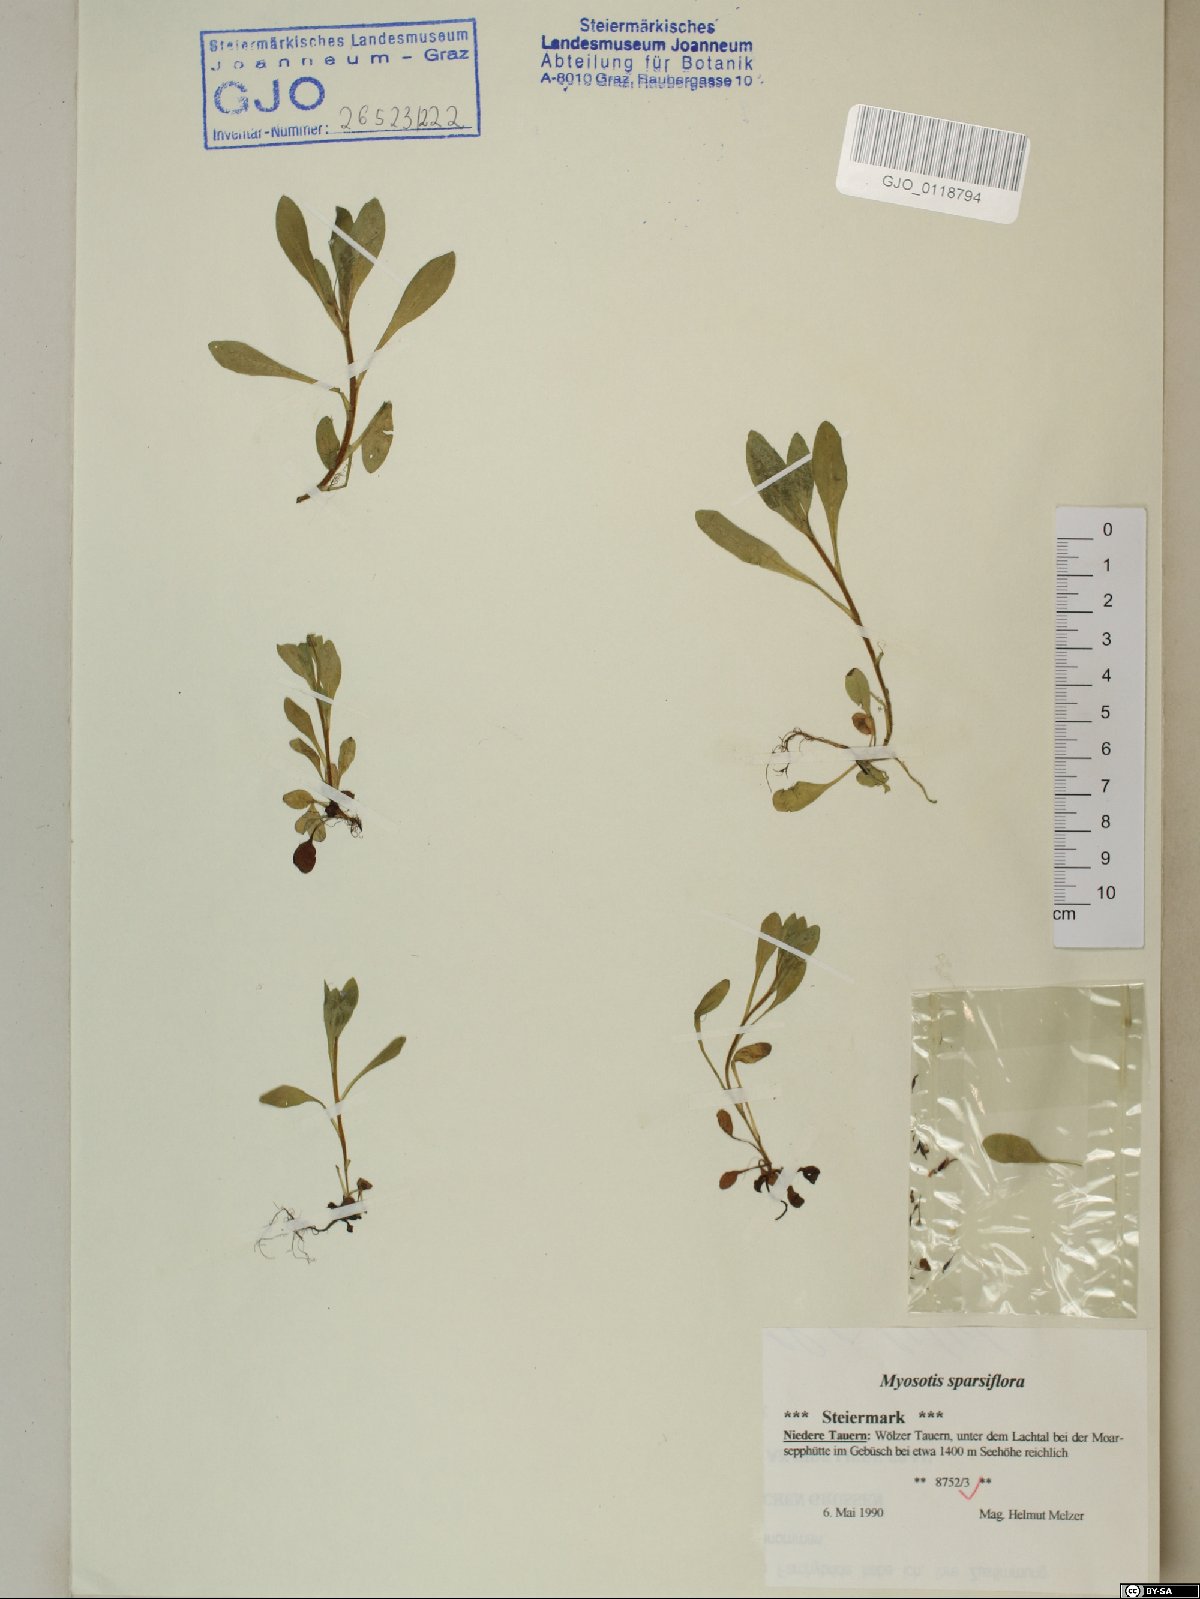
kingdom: Plantae
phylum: Tracheophyta
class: Magnoliopsida
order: Boraginales
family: Boraginaceae
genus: Myosotis
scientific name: Myosotis sparsiflora
